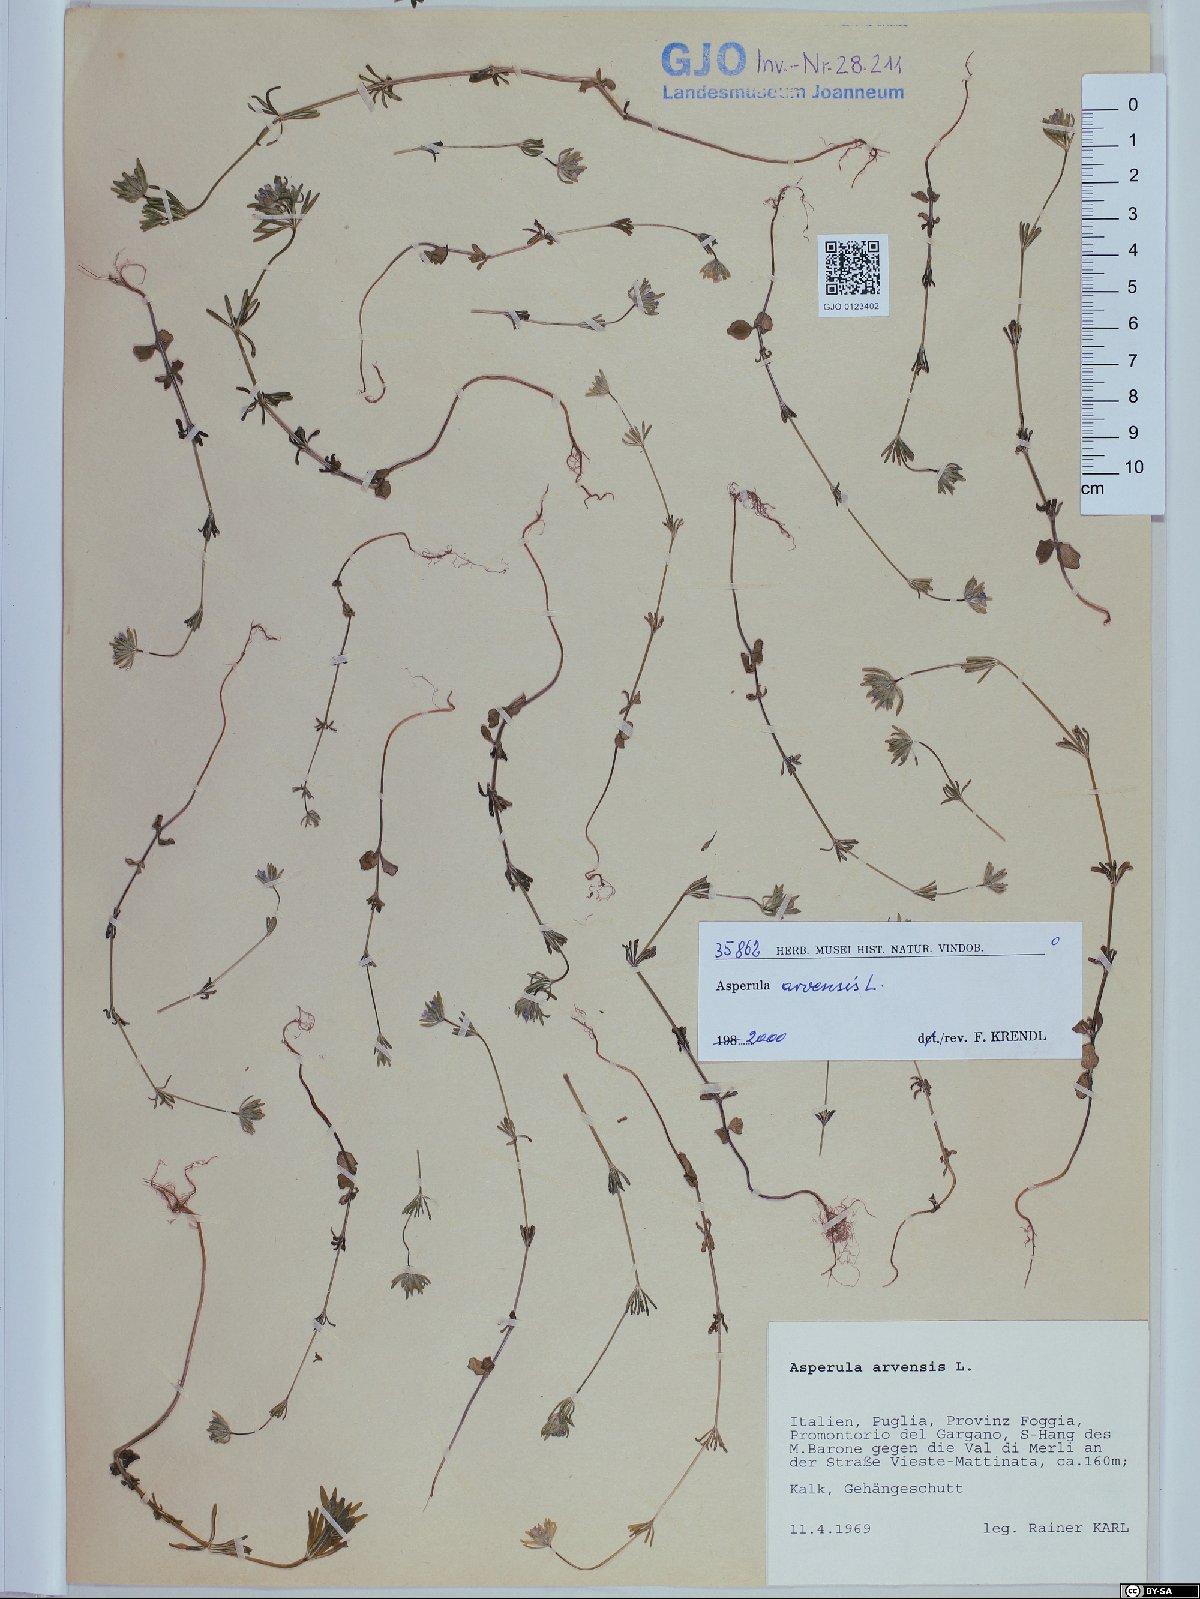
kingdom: Plantae
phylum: Tracheophyta
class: Magnoliopsida
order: Gentianales
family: Rubiaceae
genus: Asperula
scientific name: Asperula arvensis
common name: Blue woodruff
